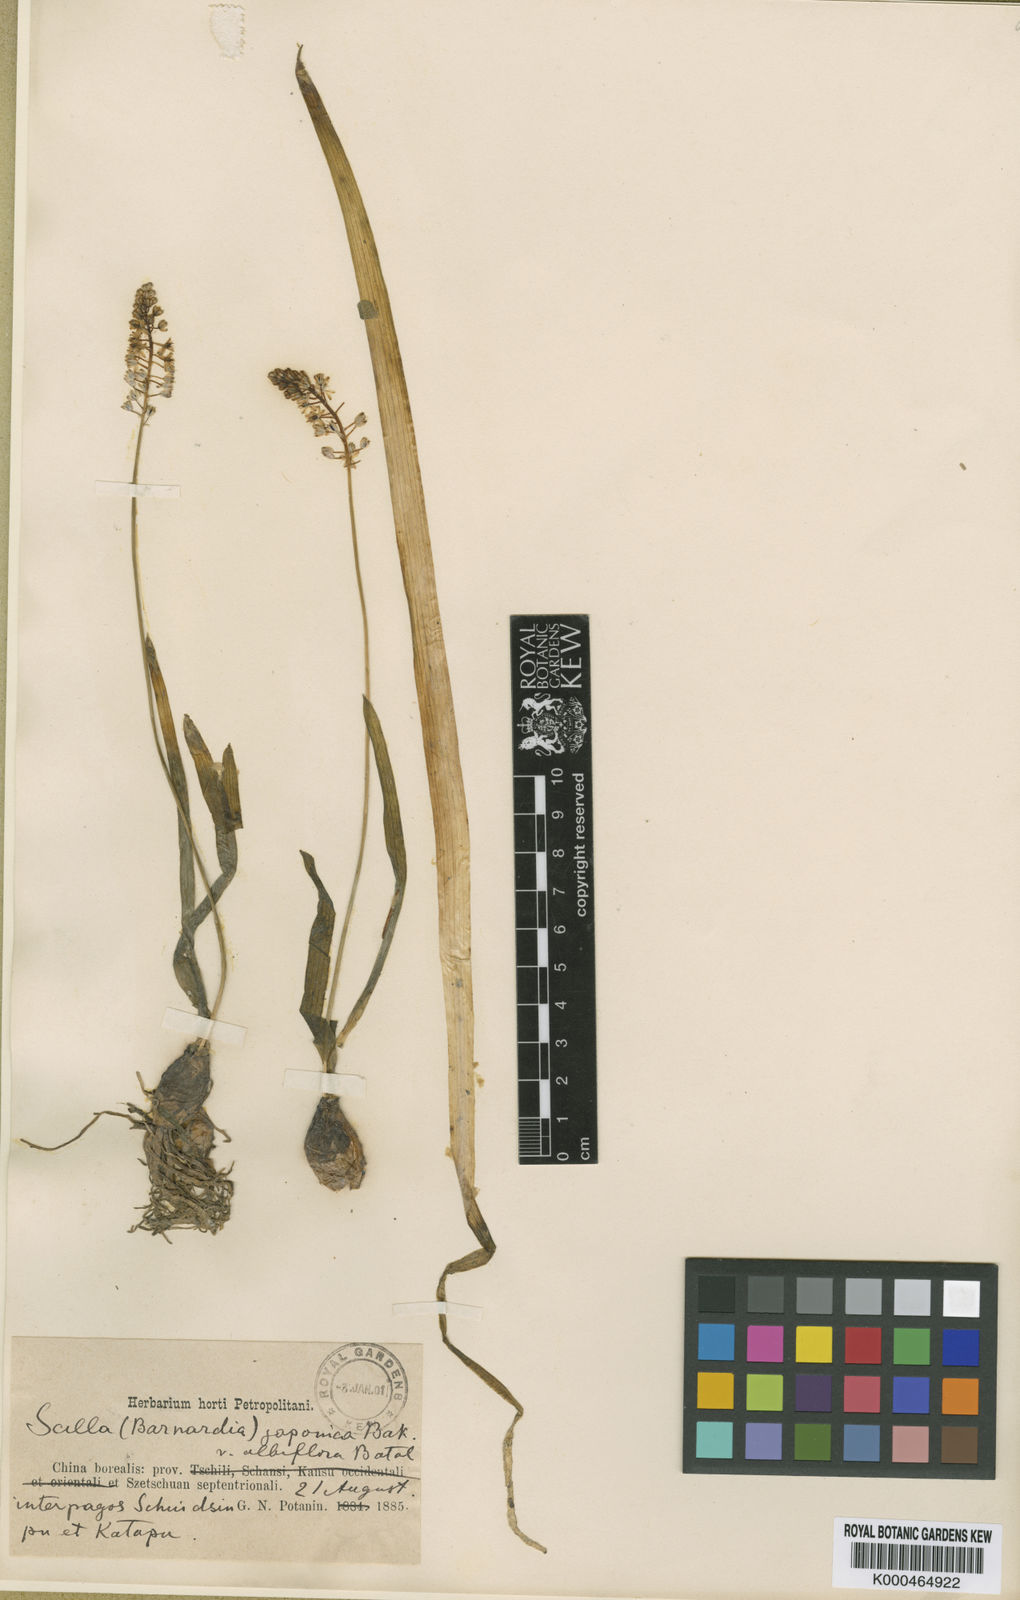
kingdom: Plantae
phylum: Tracheophyta
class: Liliopsida
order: Asparagales
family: Asparagaceae
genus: Barnardia
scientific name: Barnardia japonica
